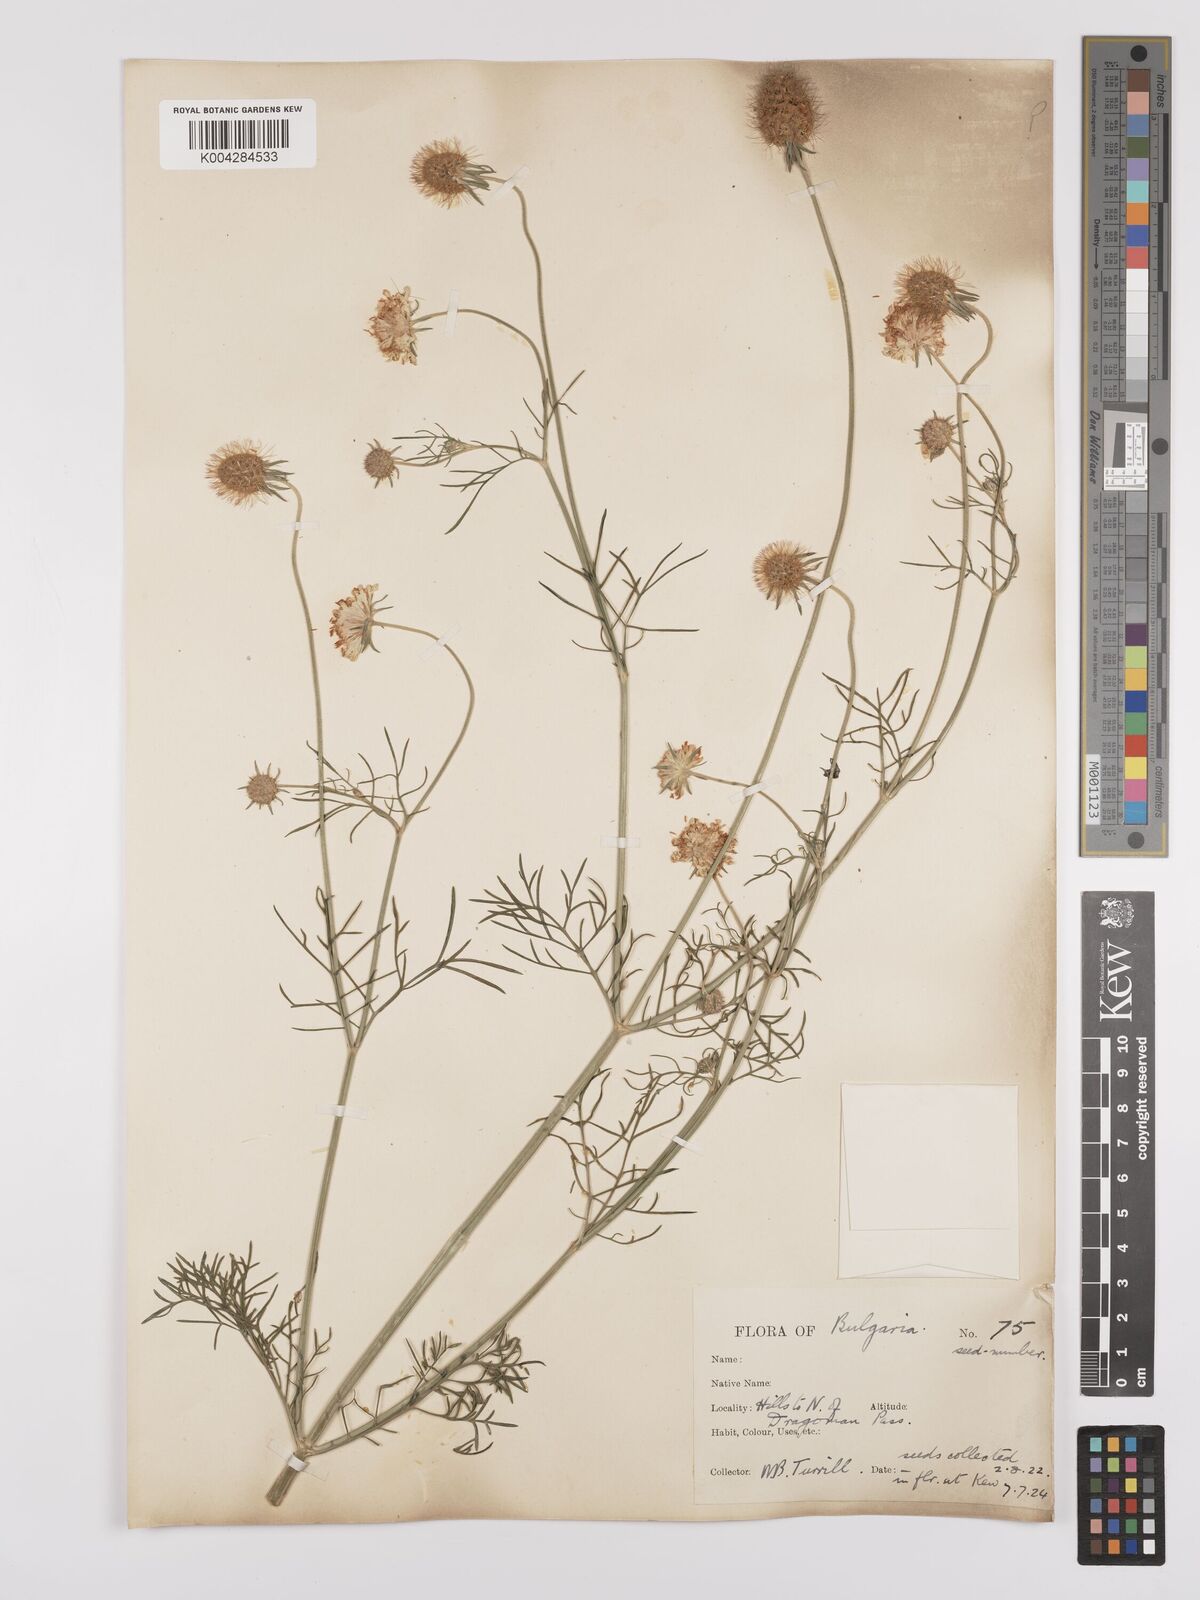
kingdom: Plantae
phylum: Tracheophyta
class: Magnoliopsida
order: Dipsacales
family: Caprifoliaceae
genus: Scabiosa
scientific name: Scabiosa triniifolia
